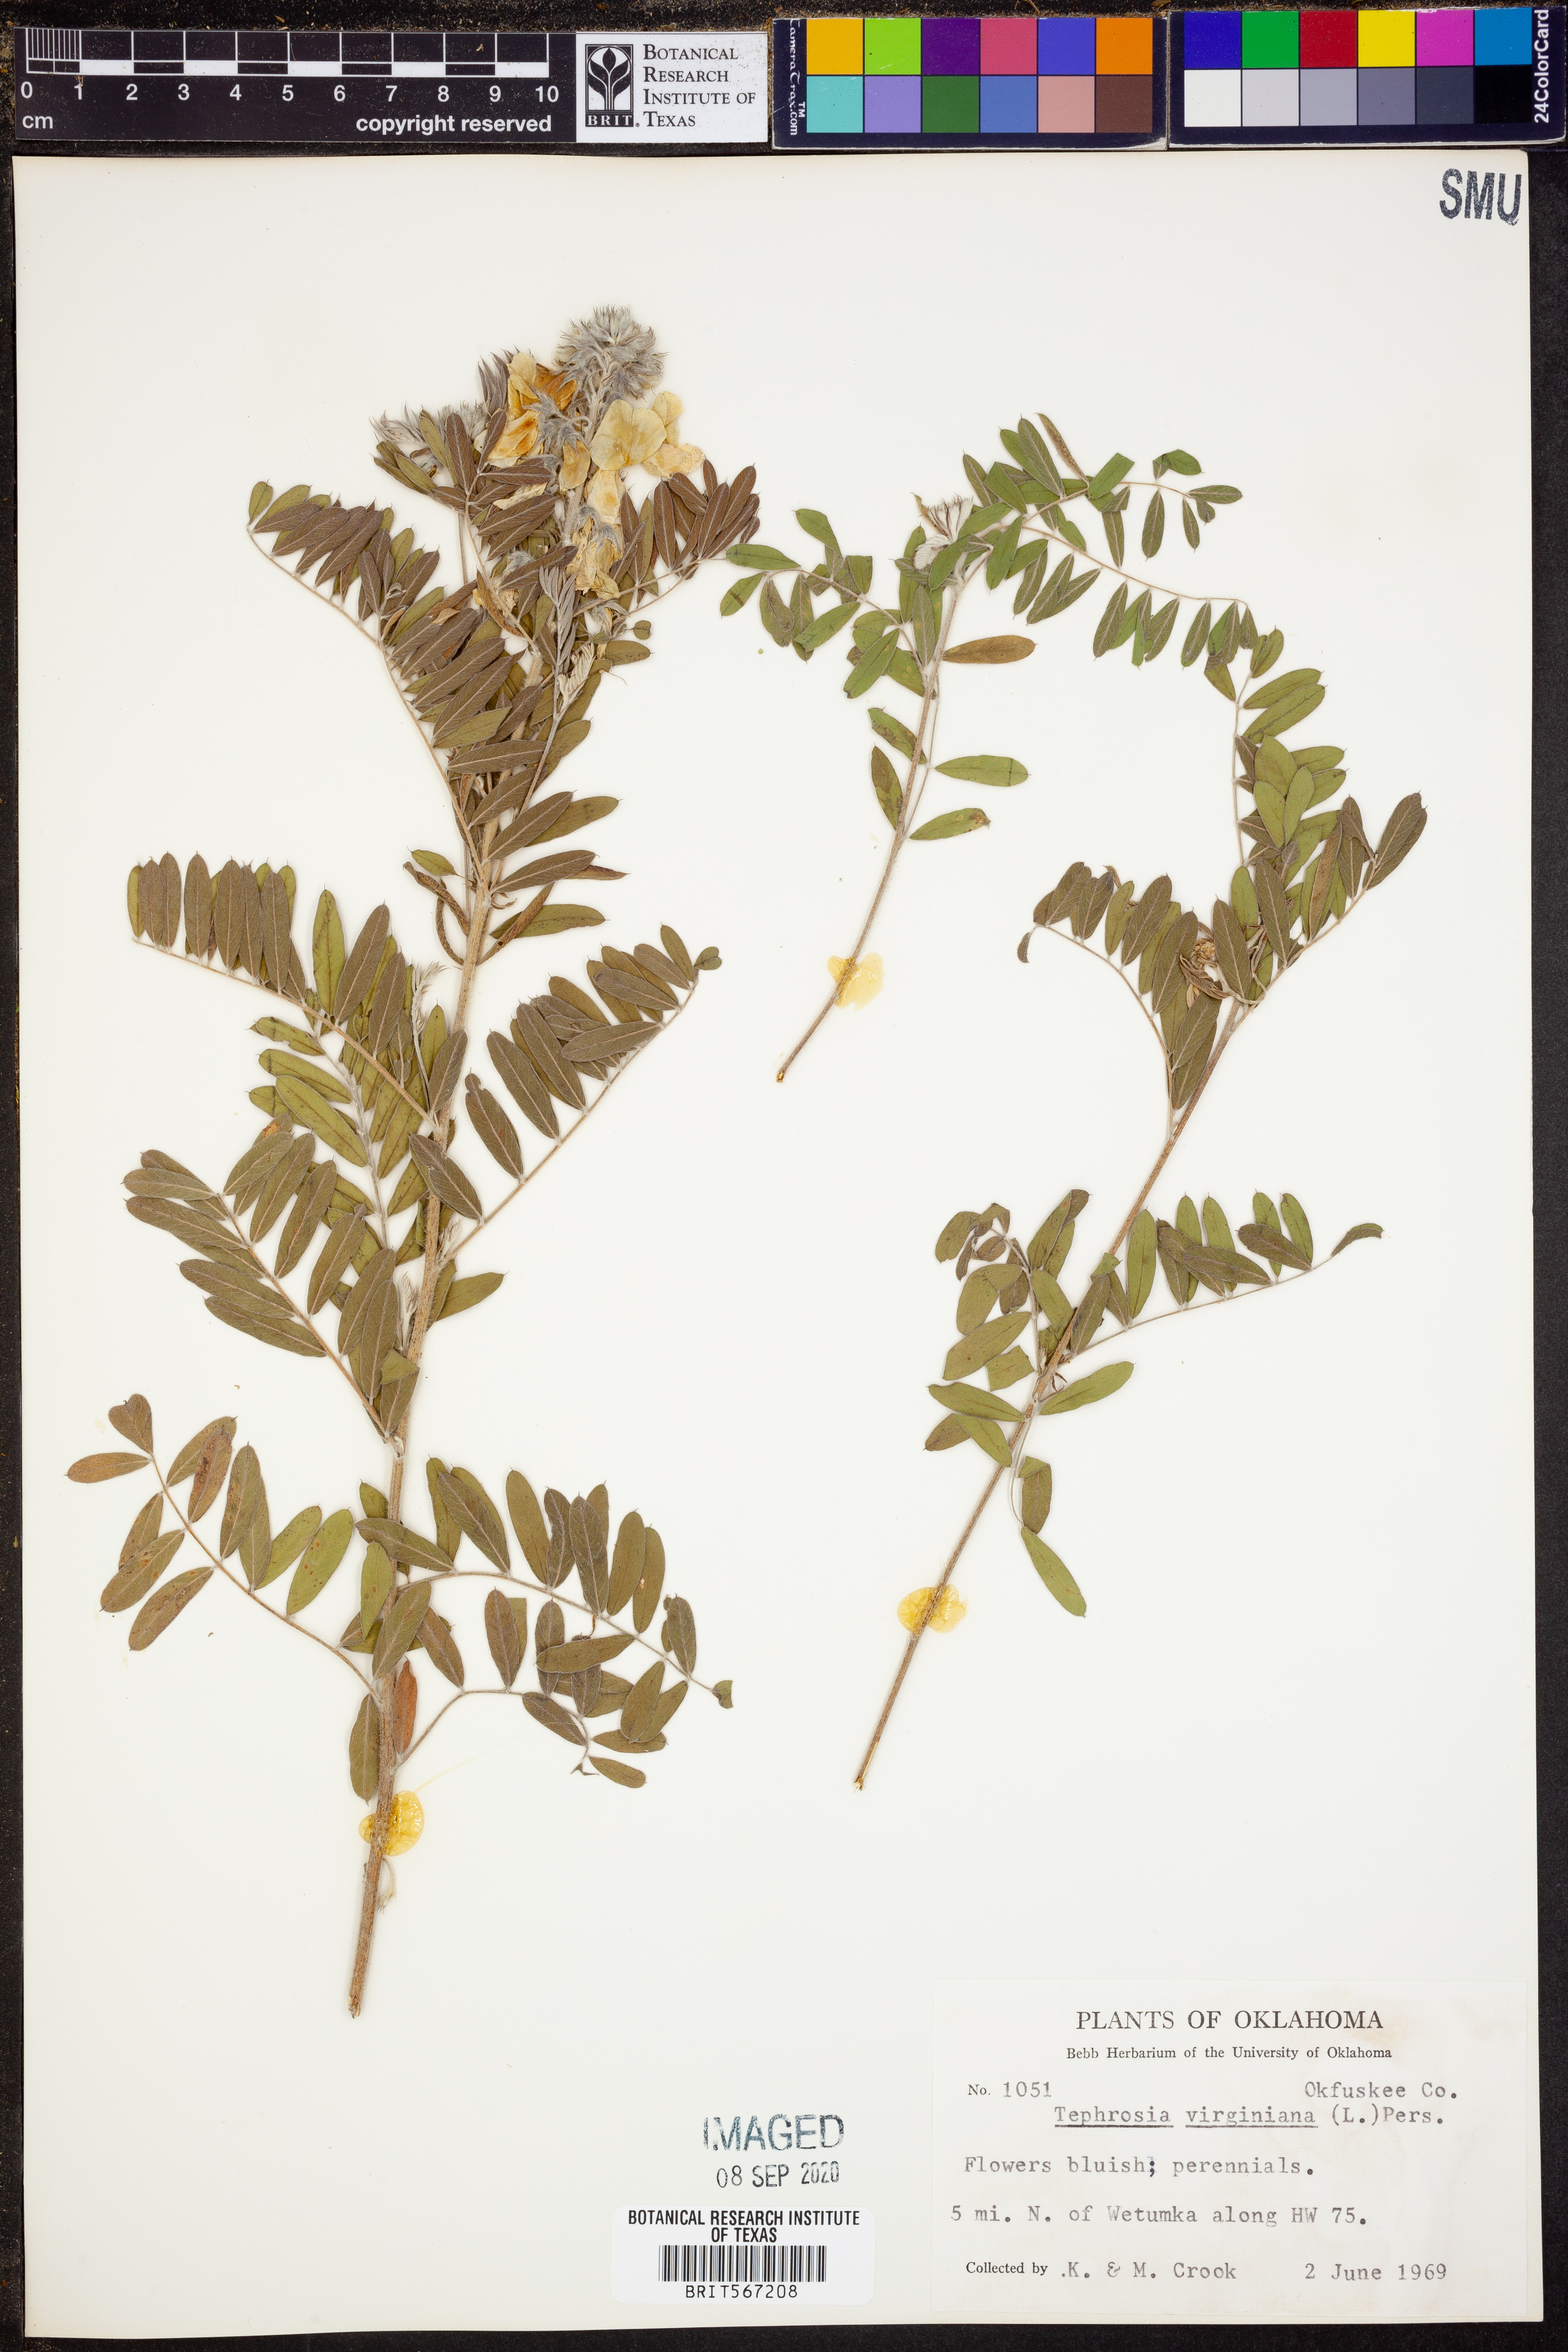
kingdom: Plantae
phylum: Tracheophyta
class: Magnoliopsida
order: Fabales
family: Fabaceae
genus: Tephrosia
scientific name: Tephrosia virginiana
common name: Rabbit-pea
